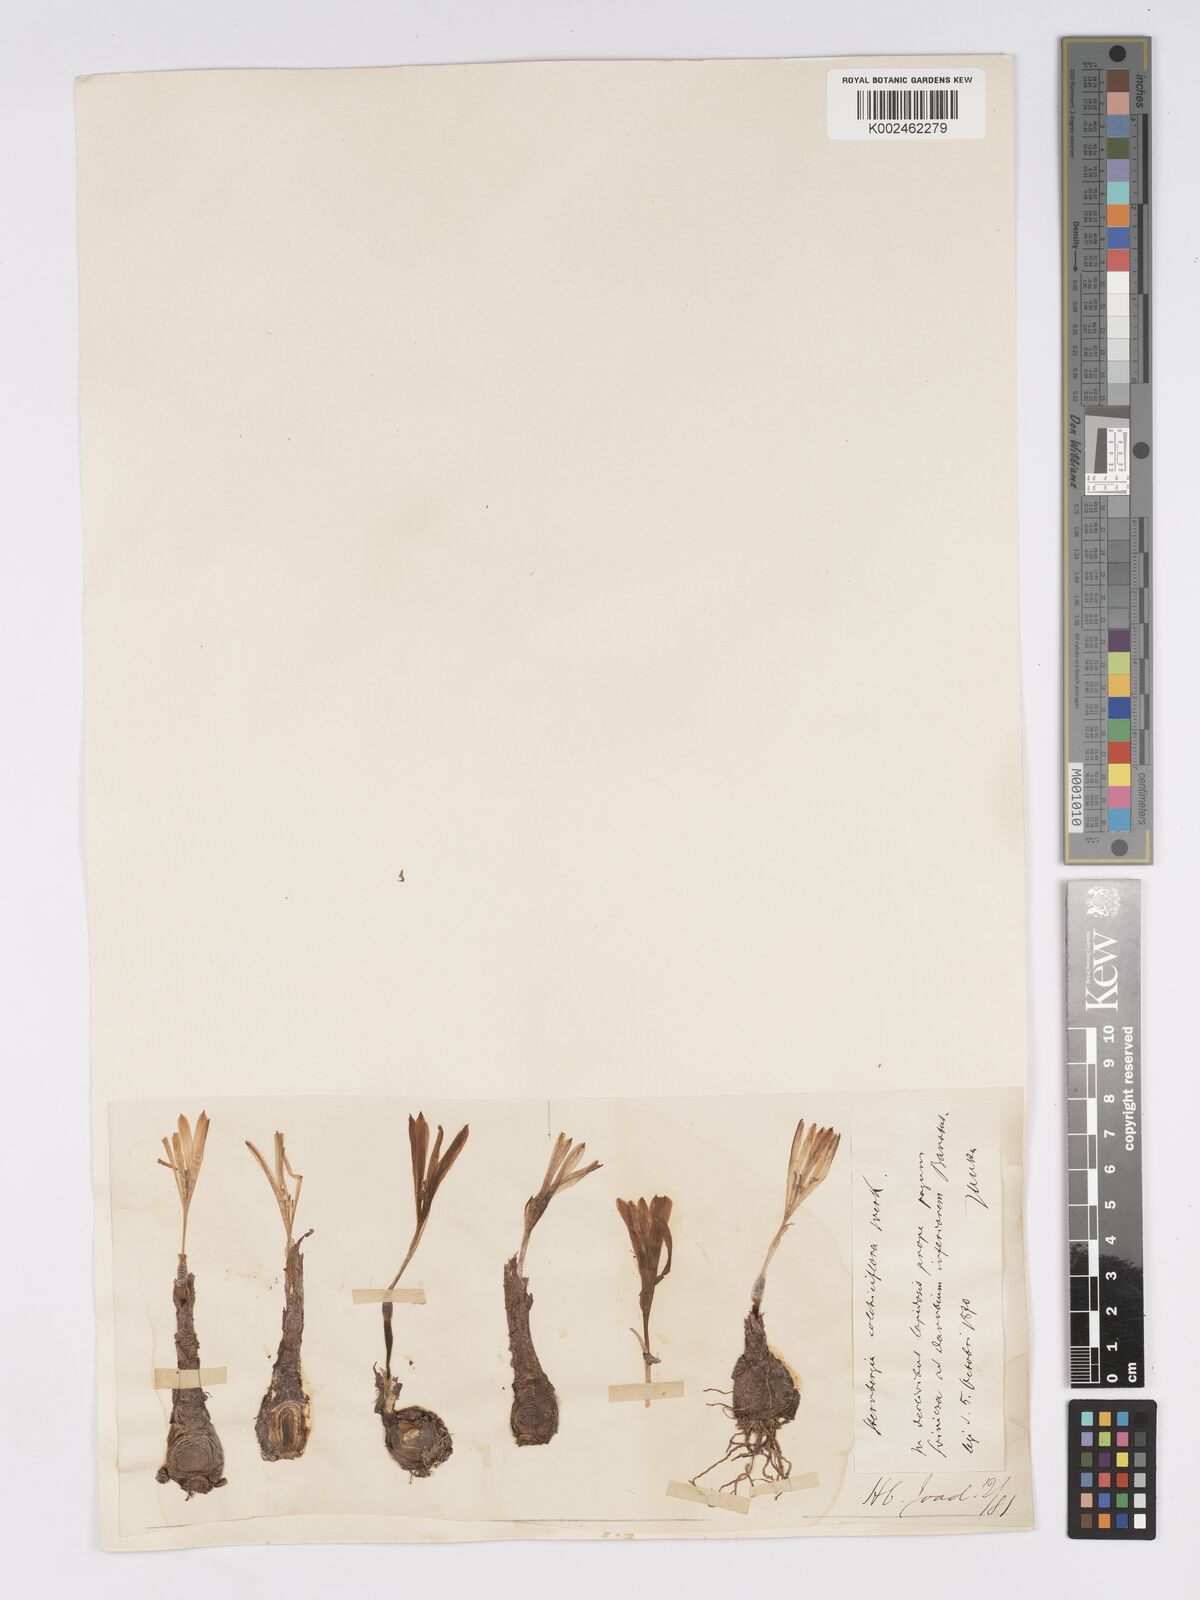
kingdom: Plantae
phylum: Tracheophyta
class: Liliopsida
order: Asparagales
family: Amaryllidaceae
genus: Sternbergia
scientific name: Sternbergia colchiciflora
